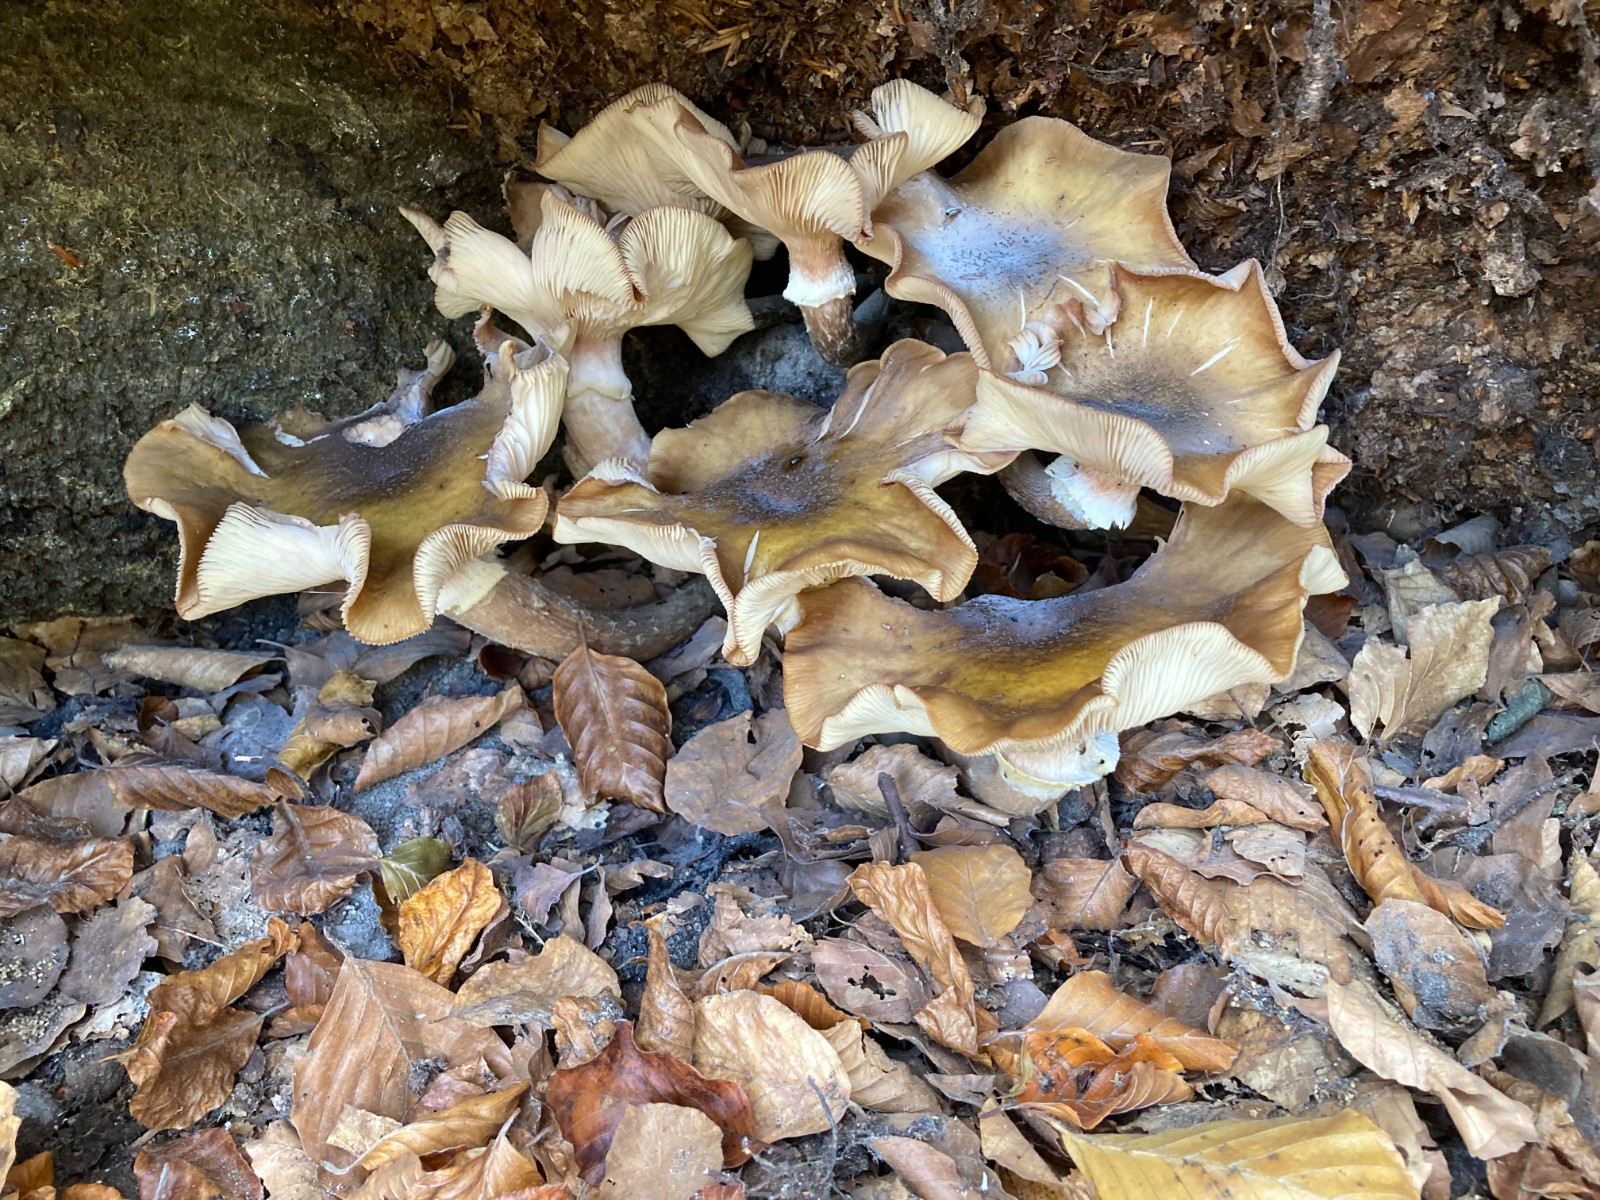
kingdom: Fungi
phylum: Basidiomycota
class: Agaricomycetes
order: Agaricales
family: Physalacriaceae
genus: Armillaria
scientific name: Armillaria mellea
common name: ægte honningsvamp
